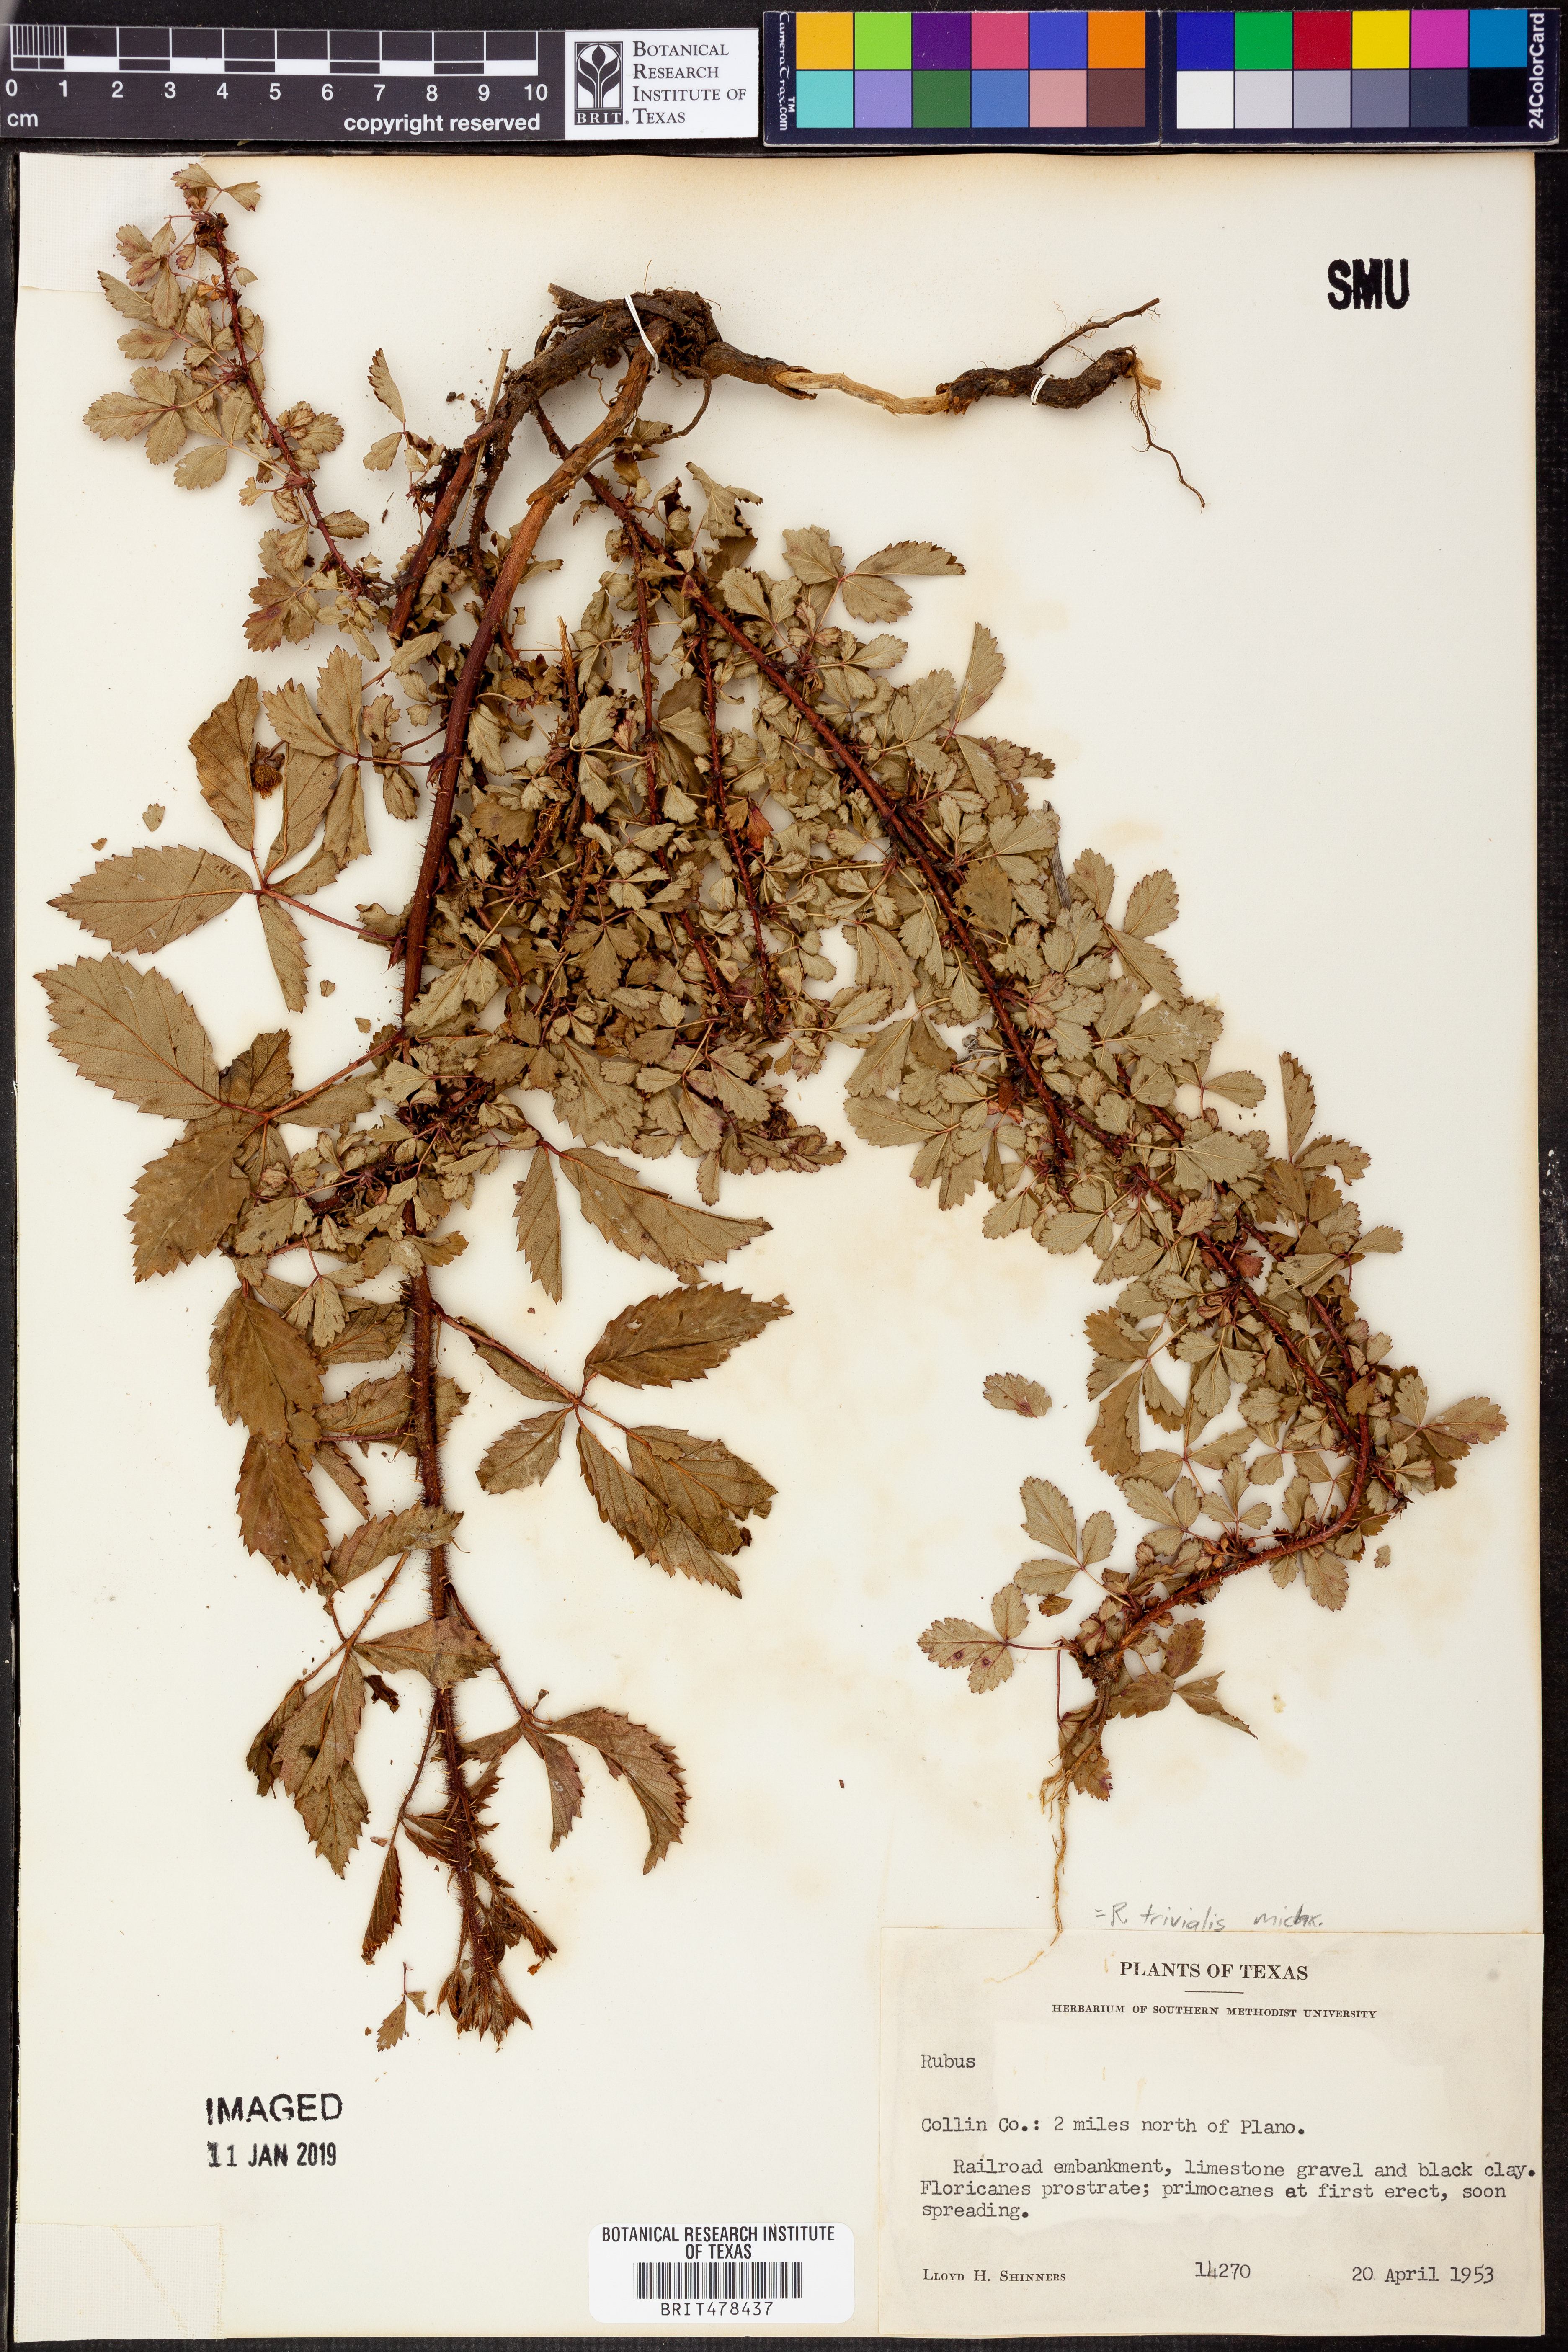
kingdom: Plantae
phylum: Tracheophyta
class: Magnoliopsida
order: Rosales
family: Rosaceae
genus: Rubus
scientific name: Rubus trivialis
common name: Southern dewberry
